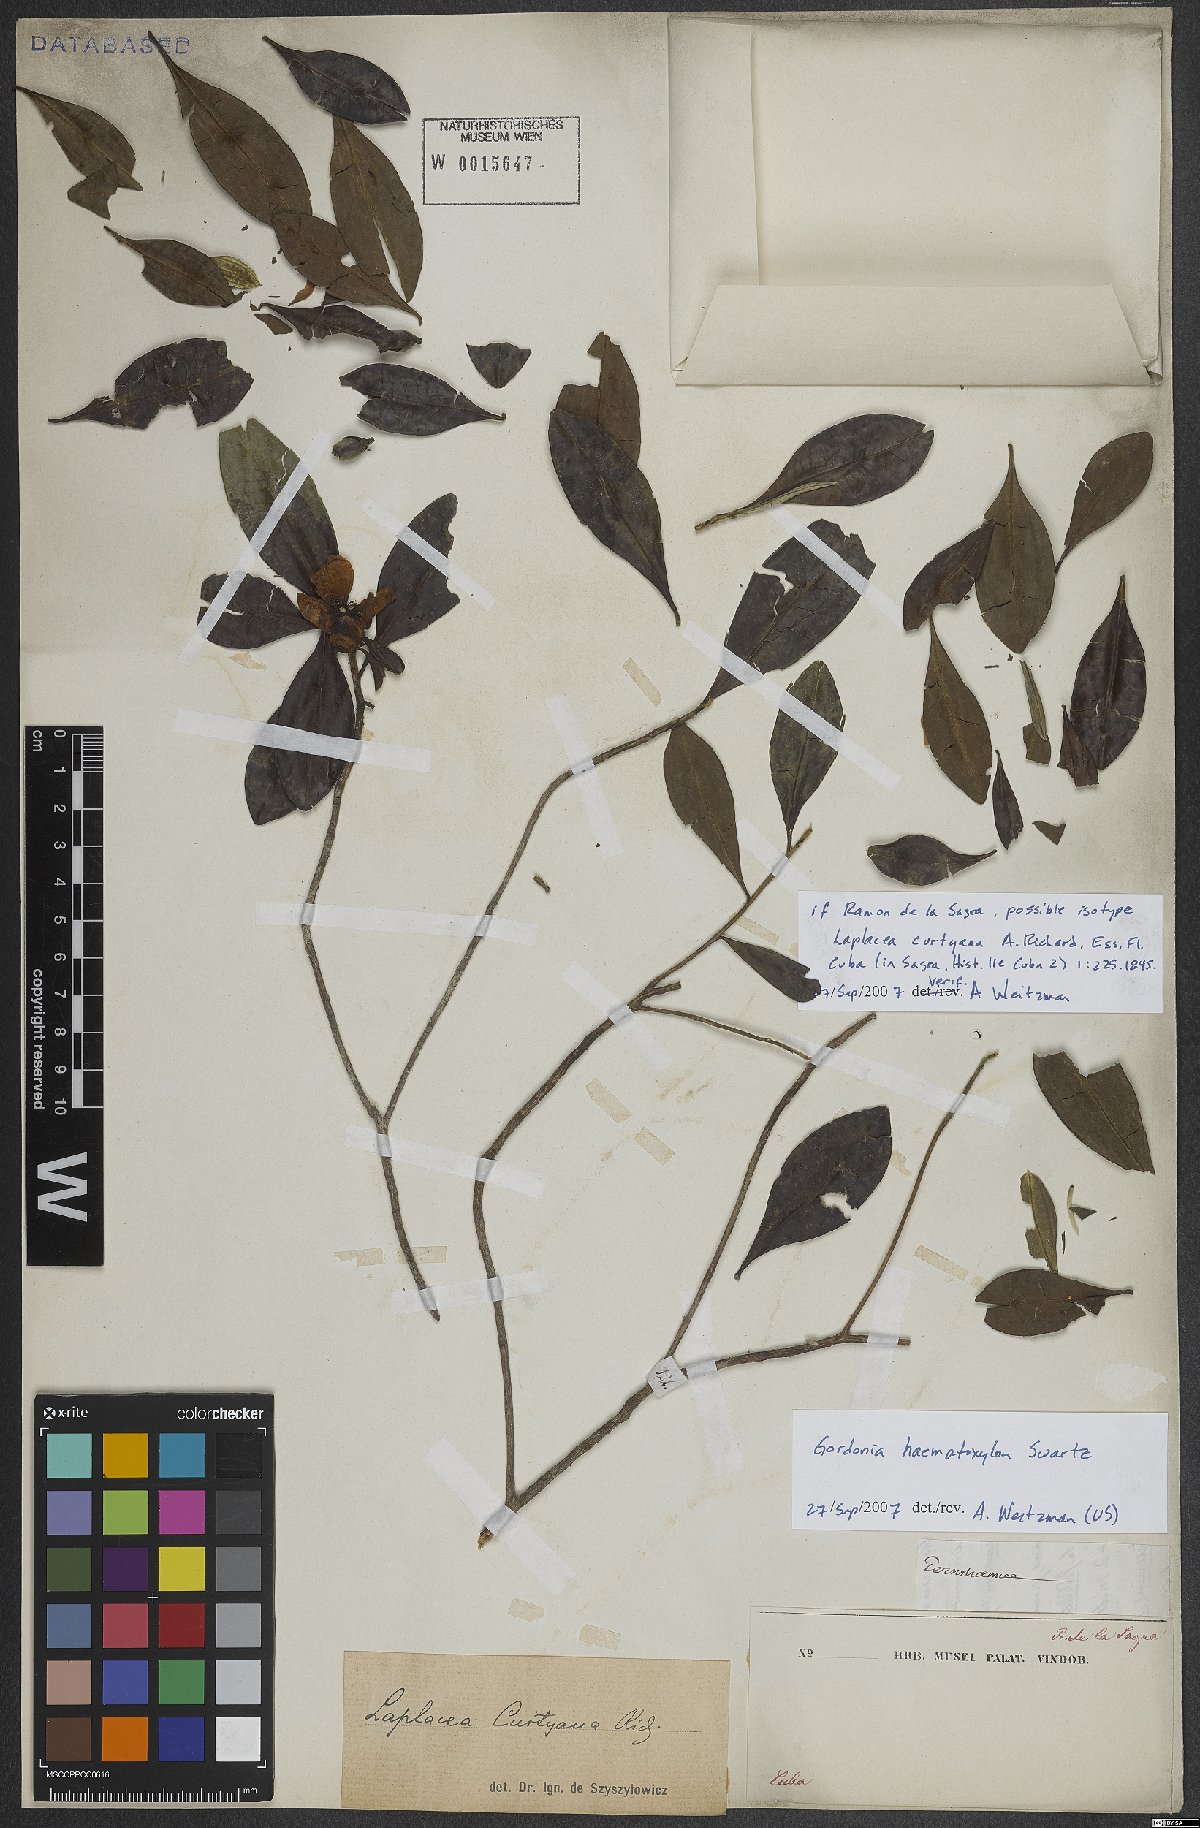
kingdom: Plantae
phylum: Tracheophyta
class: Magnoliopsida
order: Ericales
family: Theaceae
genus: Gordonia
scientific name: Gordonia haematoxylon
